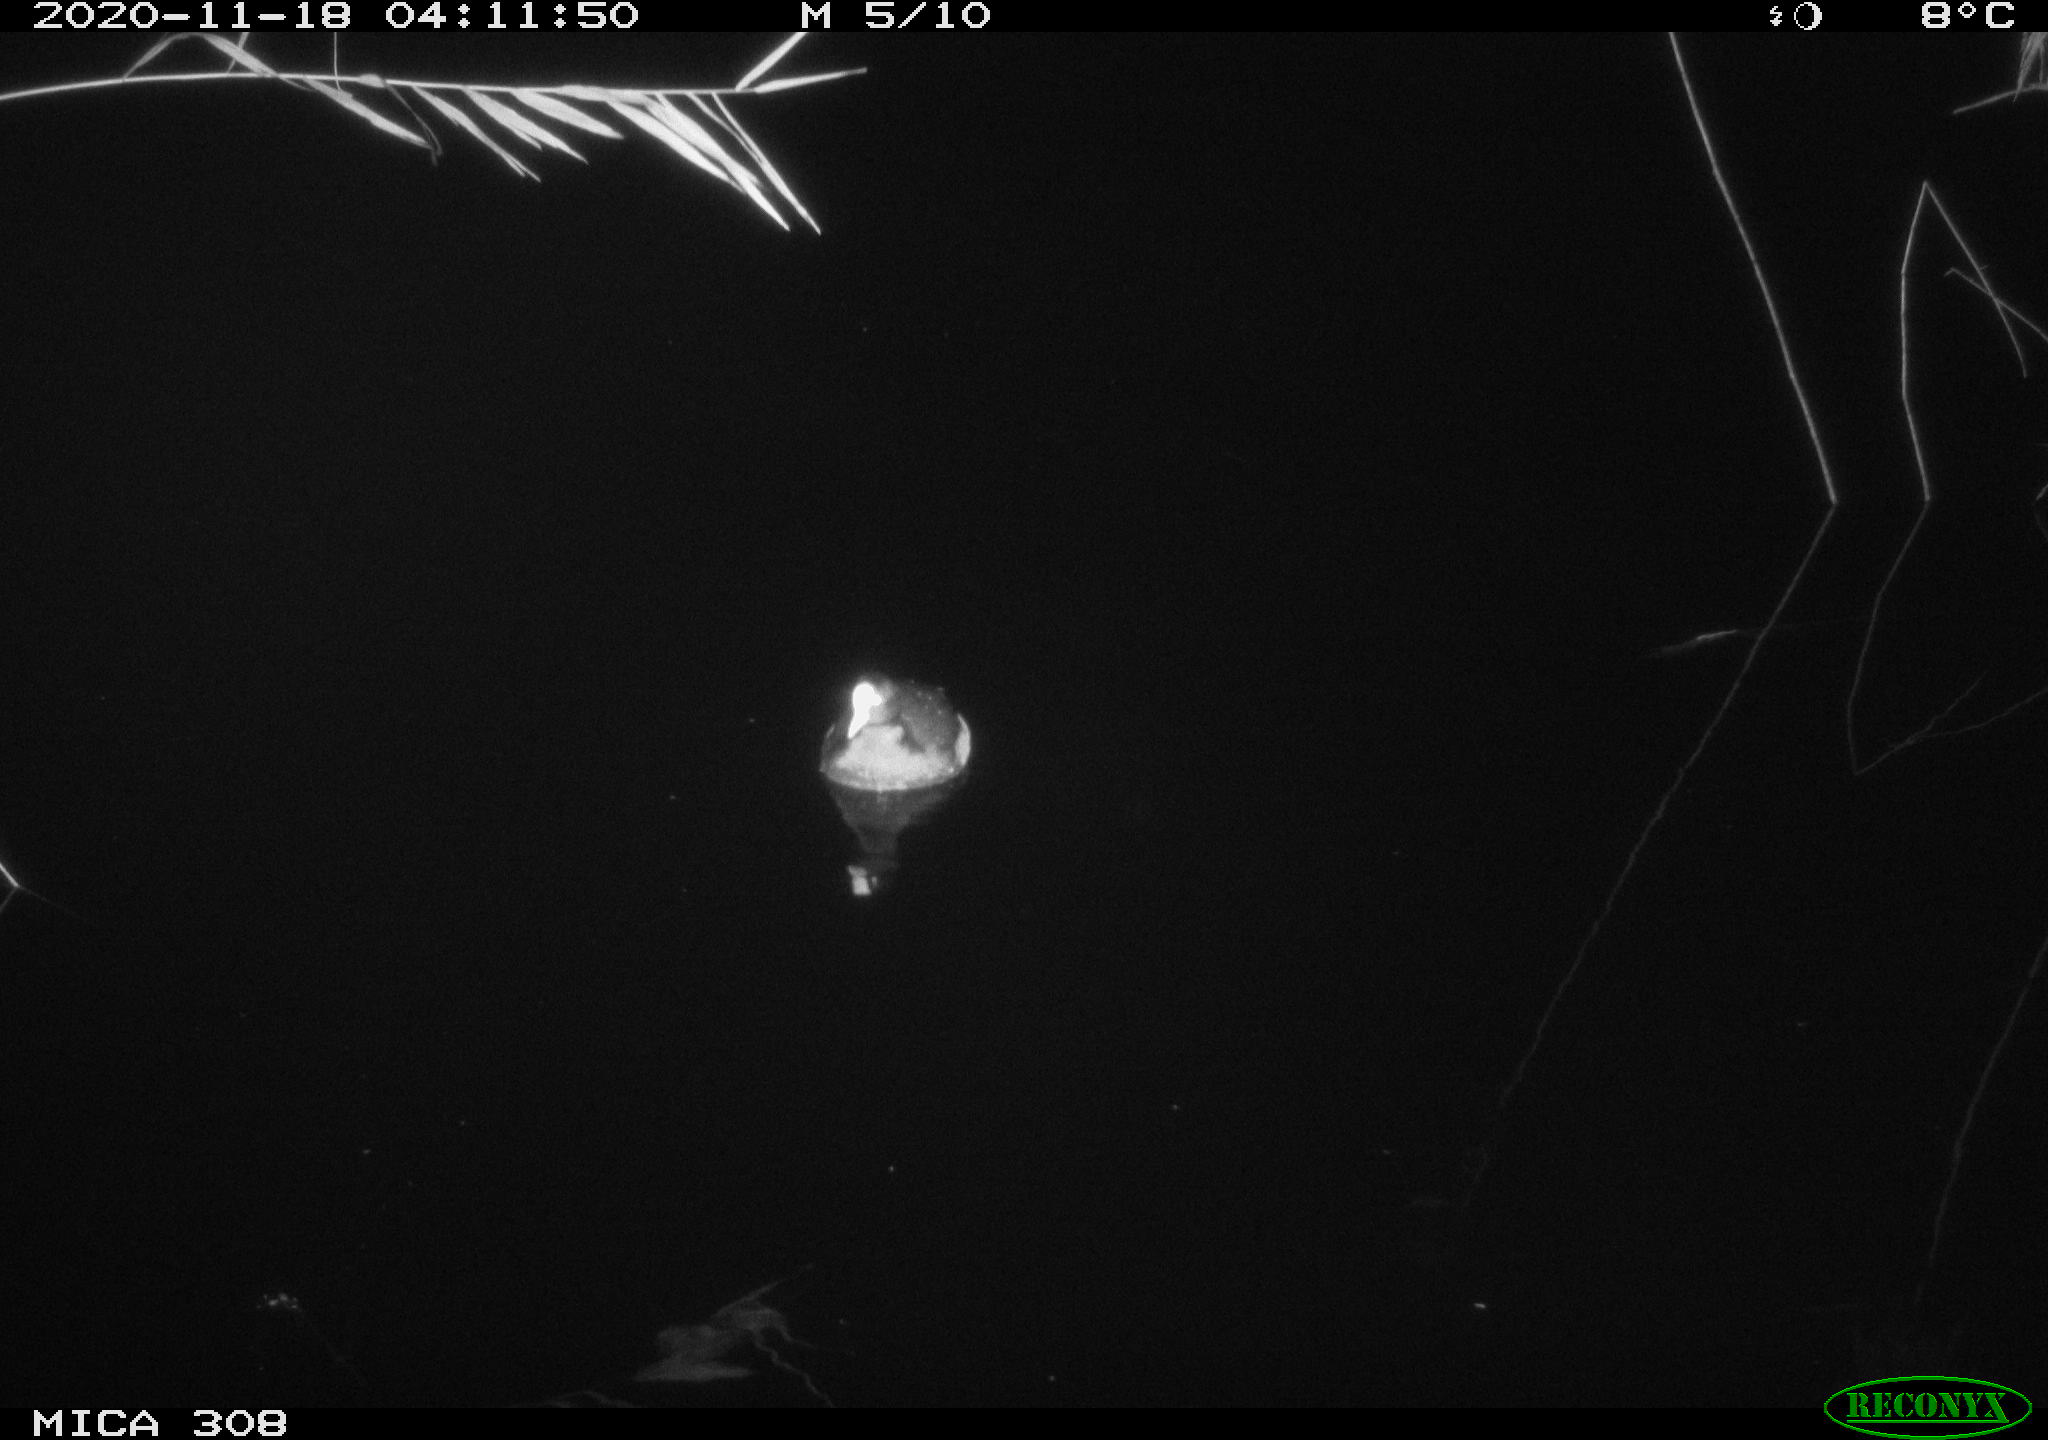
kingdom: Animalia
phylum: Chordata
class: Aves
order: Gruiformes
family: Rallidae
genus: Fulica
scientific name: Fulica atra
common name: Eurasian coot
